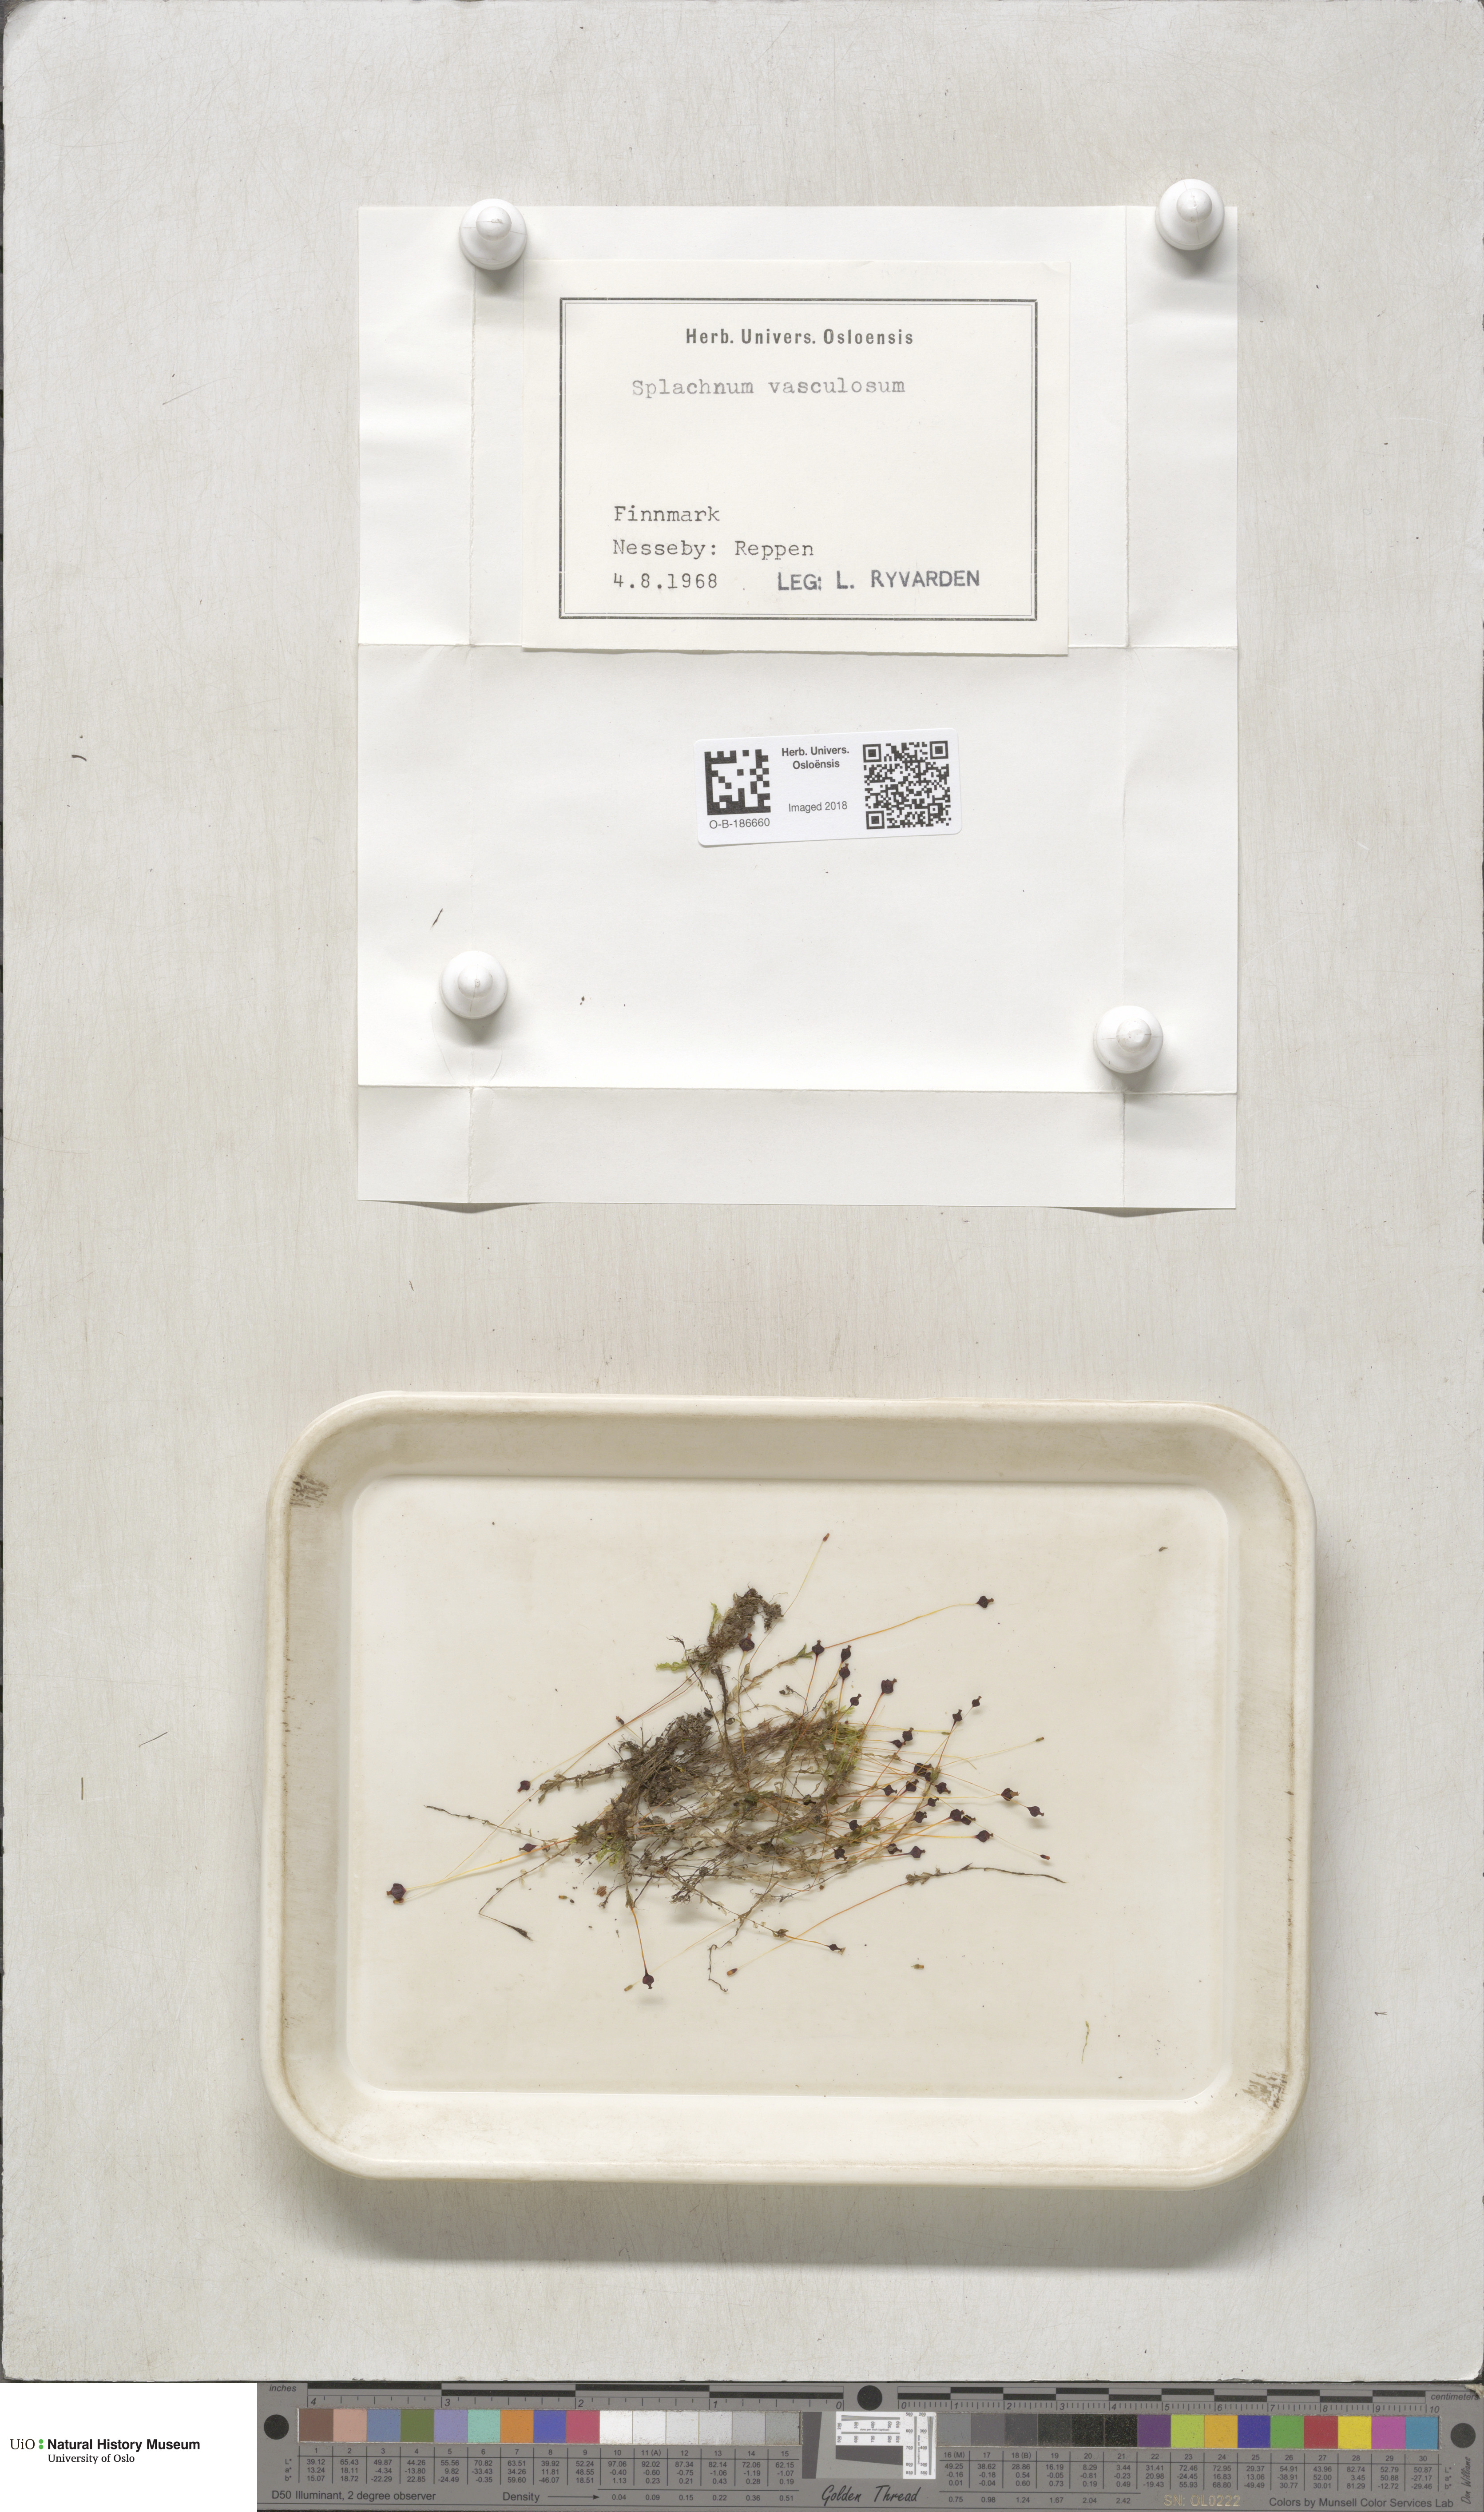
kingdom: Plantae
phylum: Bryophyta
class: Bryopsida
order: Splachnales
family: Splachnaceae
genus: Splachnum
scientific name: Splachnum vasculosum
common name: Rugged dung moss
